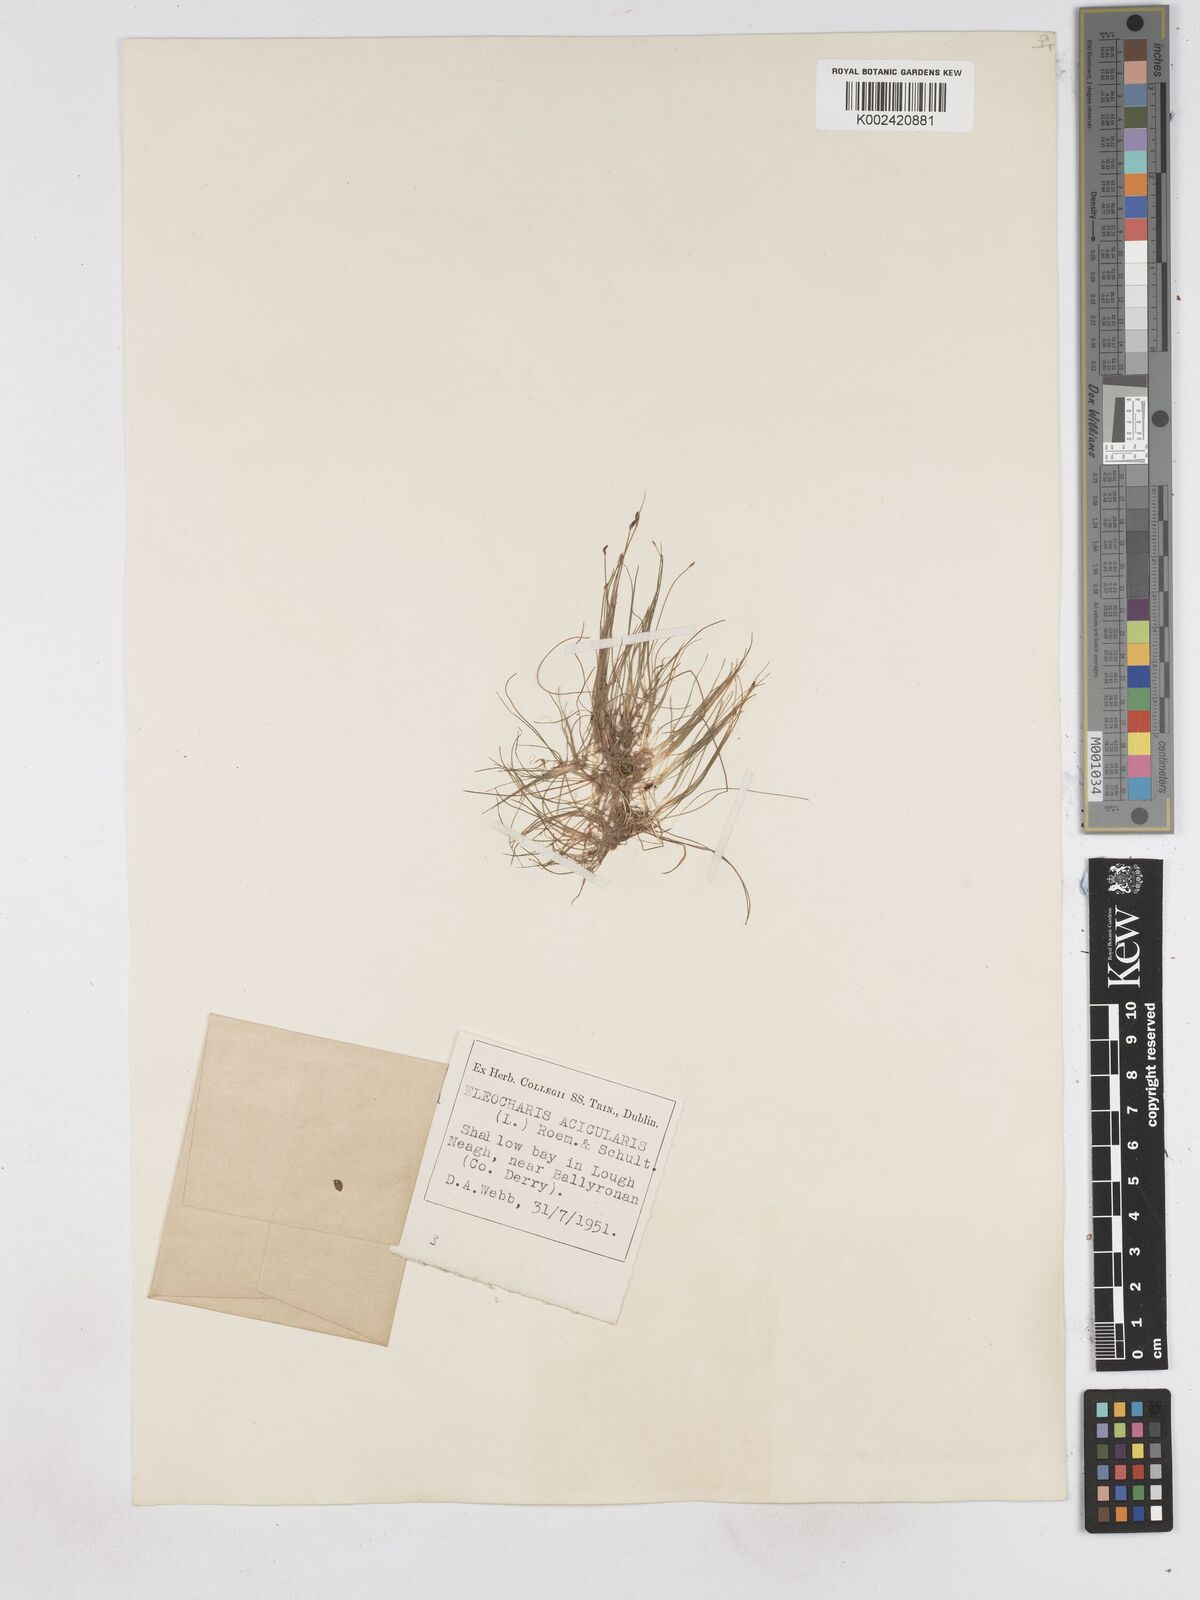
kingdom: Plantae
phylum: Tracheophyta
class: Liliopsida
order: Poales
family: Cyperaceae
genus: Eleocharis
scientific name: Eleocharis acicularis
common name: Needle spike-rush
